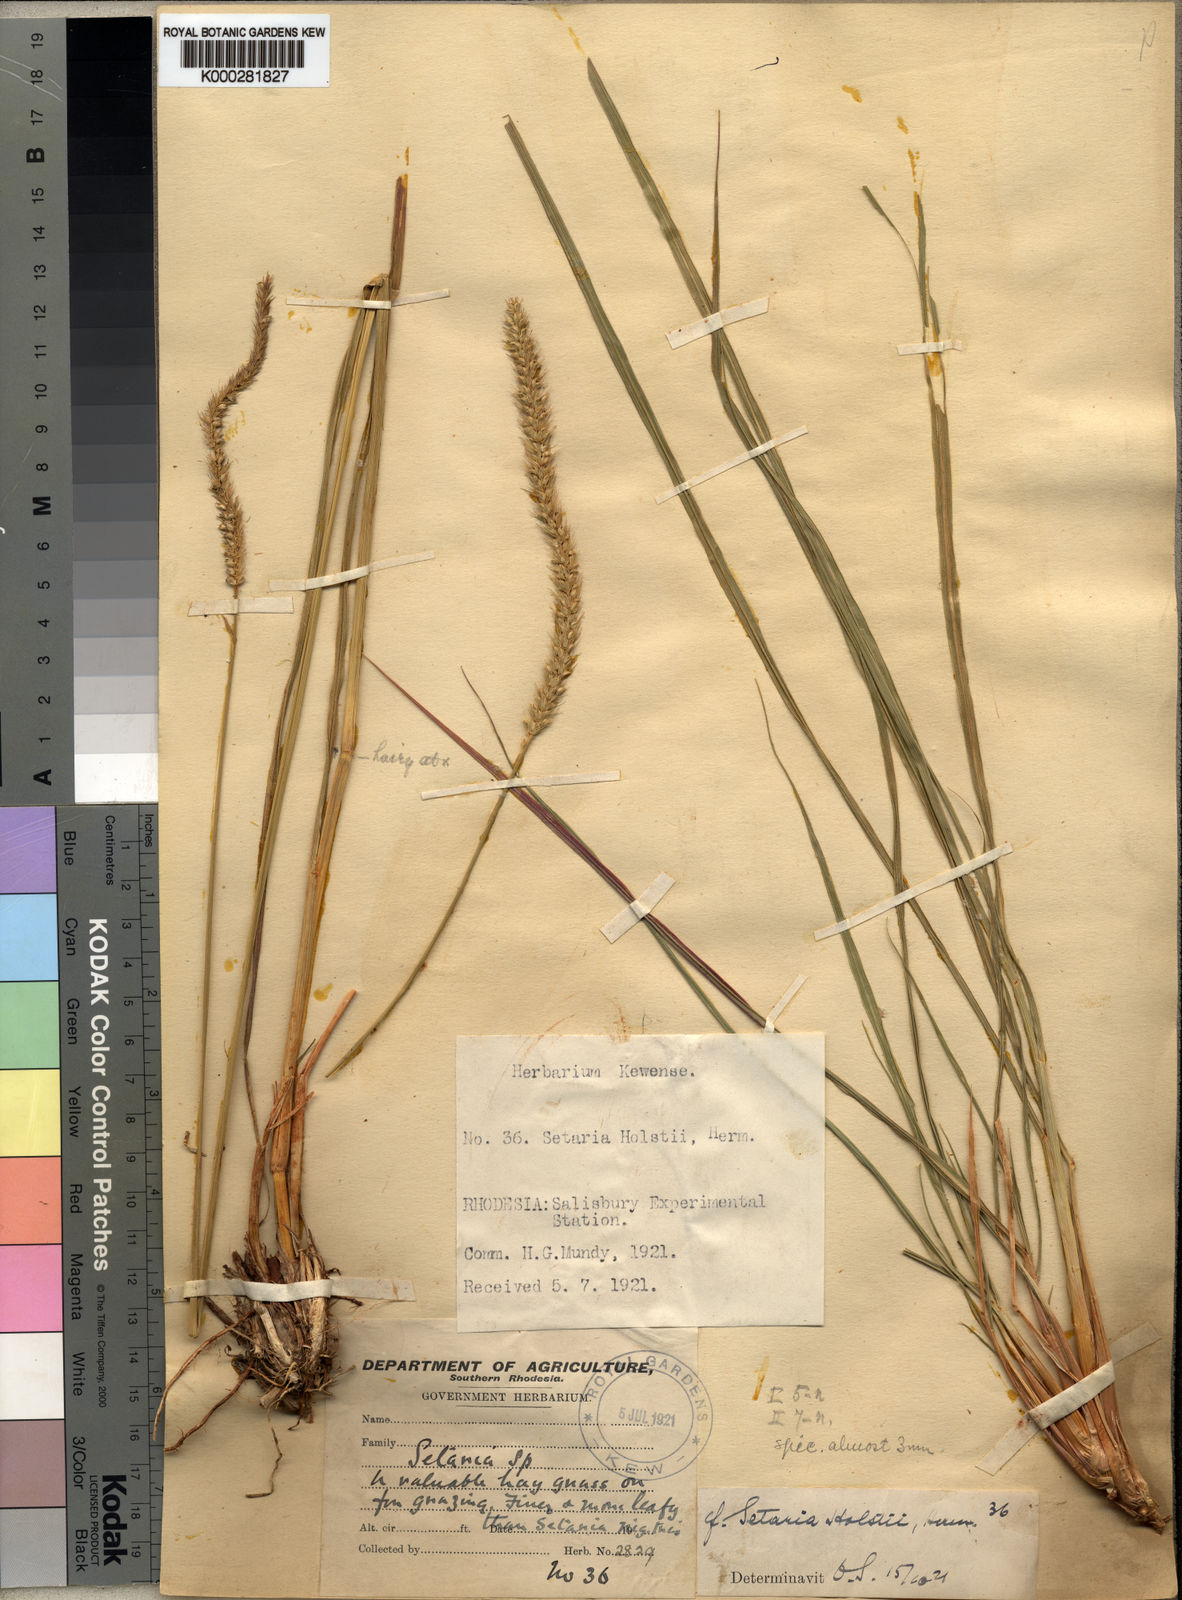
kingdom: Plantae
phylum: Tracheophyta
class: Liliopsida
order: Poales
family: Poaceae
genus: Setaria
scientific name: Setaria incrassata
